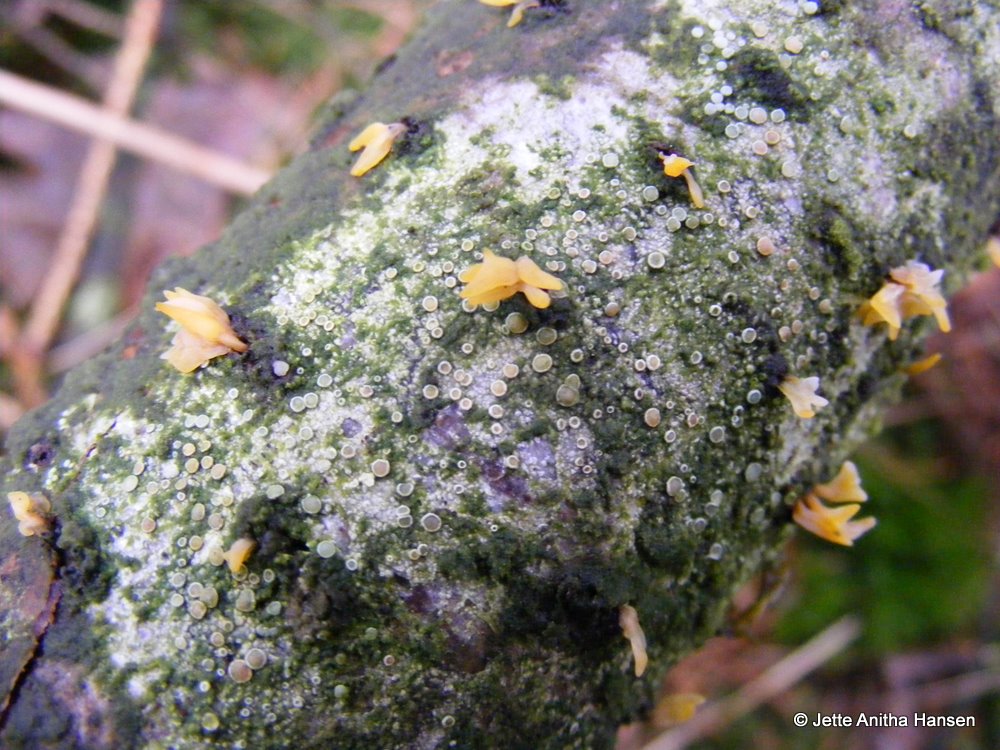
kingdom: Fungi
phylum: Basidiomycota
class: Dacrymycetes
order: Dacrymycetales
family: Dacrymycetaceae
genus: Calocera
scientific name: Calocera cornea
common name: liden guldgaffel
